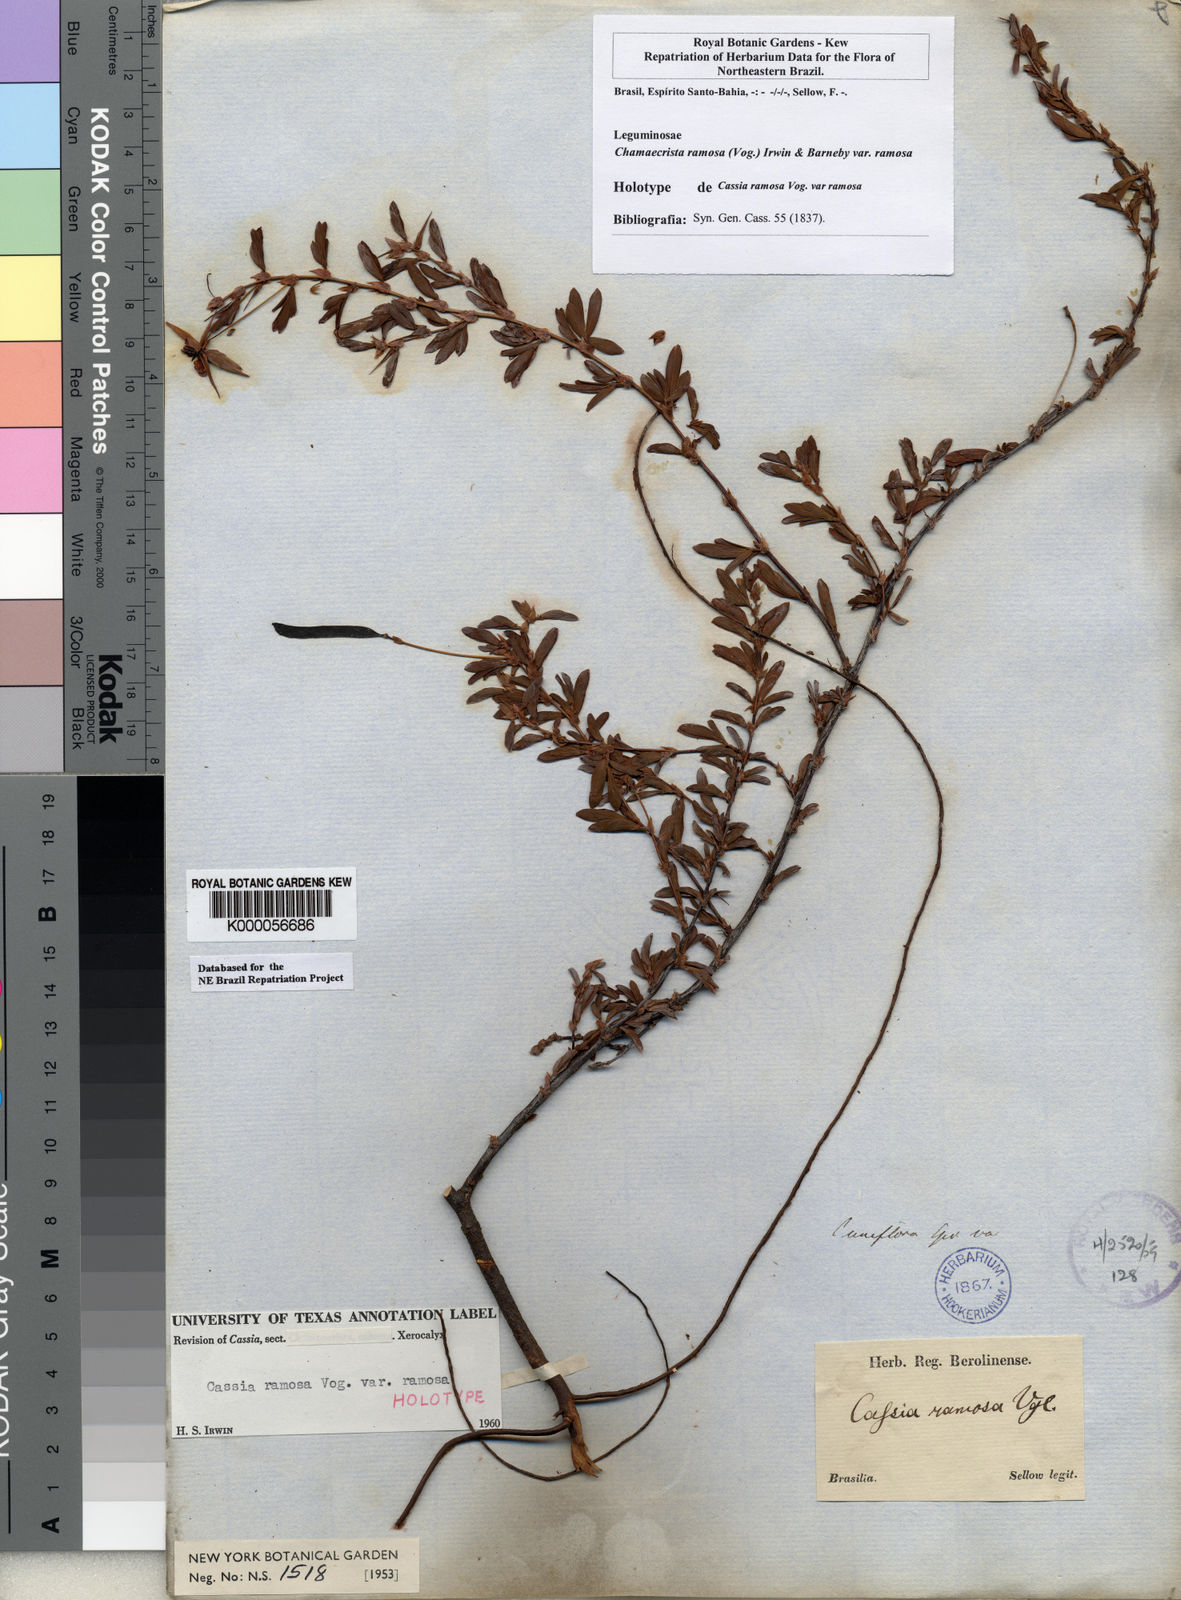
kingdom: Plantae
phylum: Tracheophyta
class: Magnoliopsida
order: Fabales
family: Fabaceae
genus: Chamaecrista
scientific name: Chamaecrista ramosa
